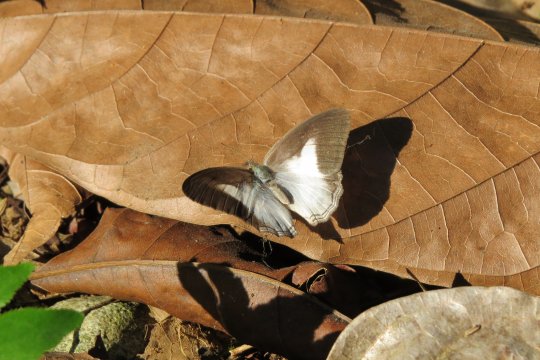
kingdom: Animalia
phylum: Arthropoda
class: Insecta
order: Lepidoptera
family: Nymphalidae
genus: Pareuptychia
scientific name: Pareuptychia metaleuca
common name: White-banded Satyr
